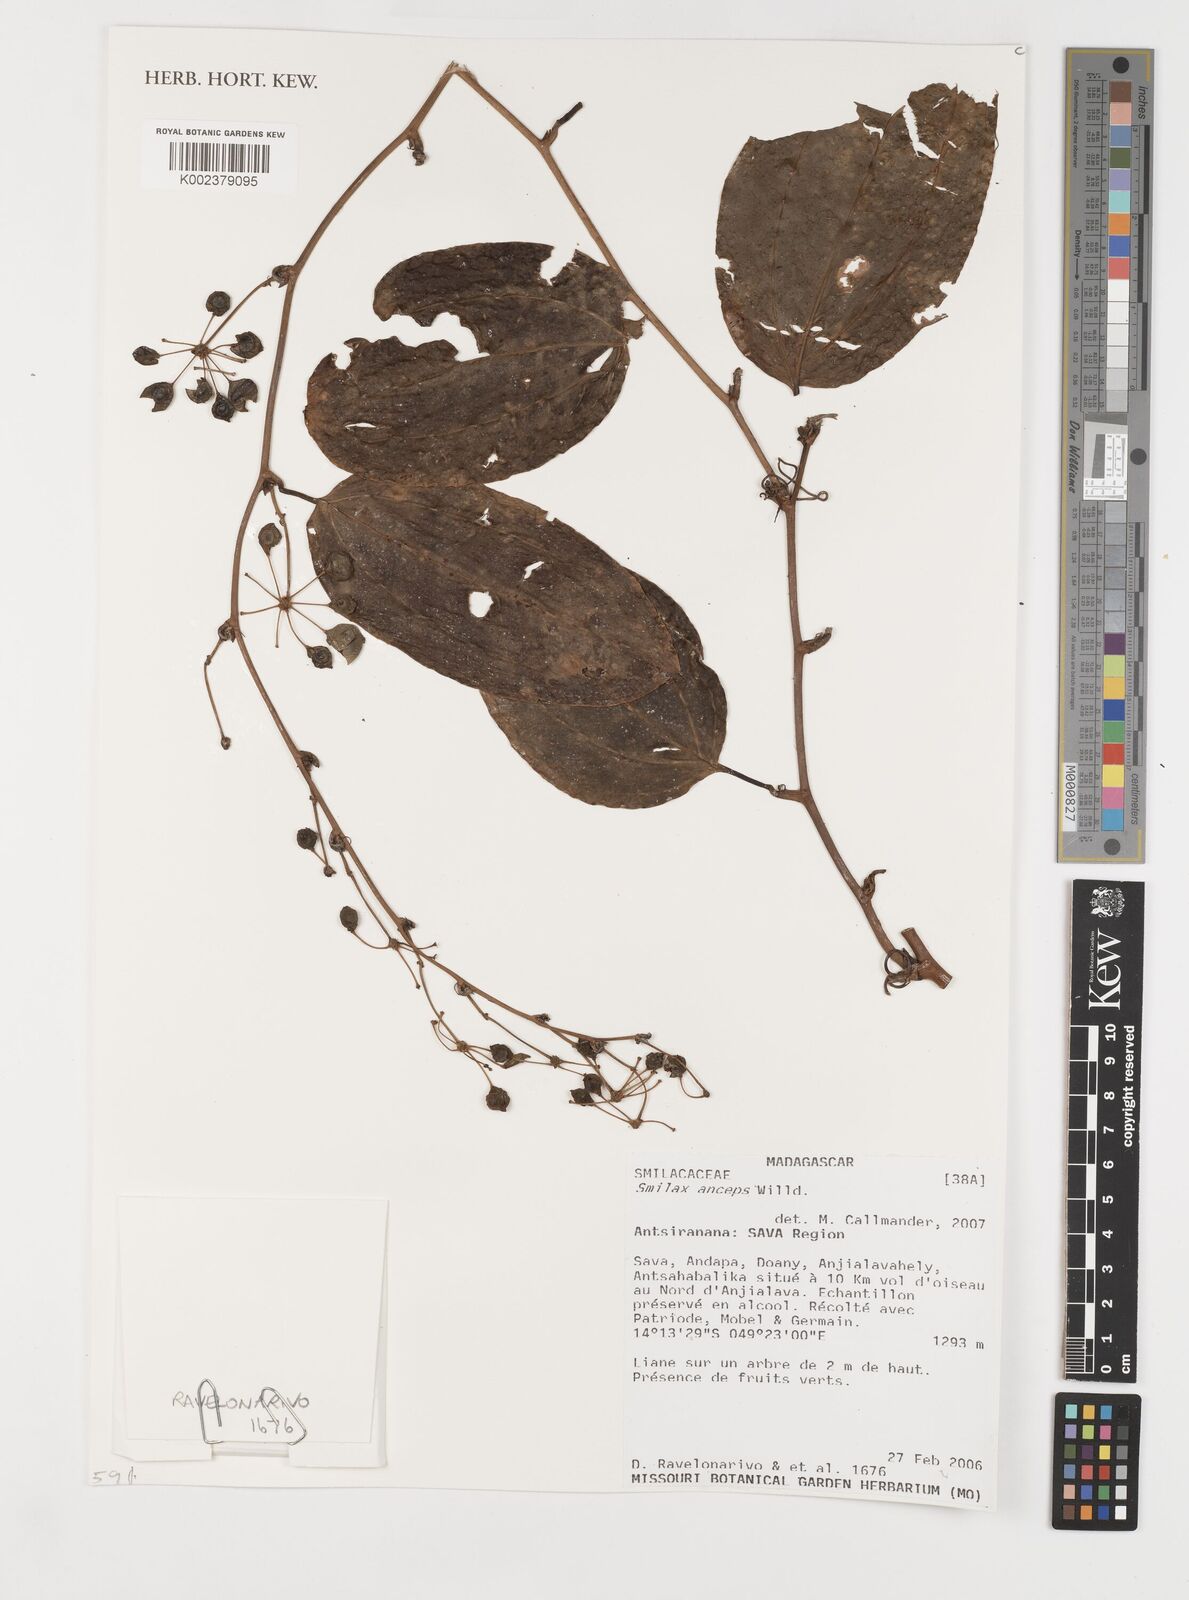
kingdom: Plantae
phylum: Tracheophyta
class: Liliopsida
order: Liliales
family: Smilacaceae
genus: Smilax
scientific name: Smilax anceps
